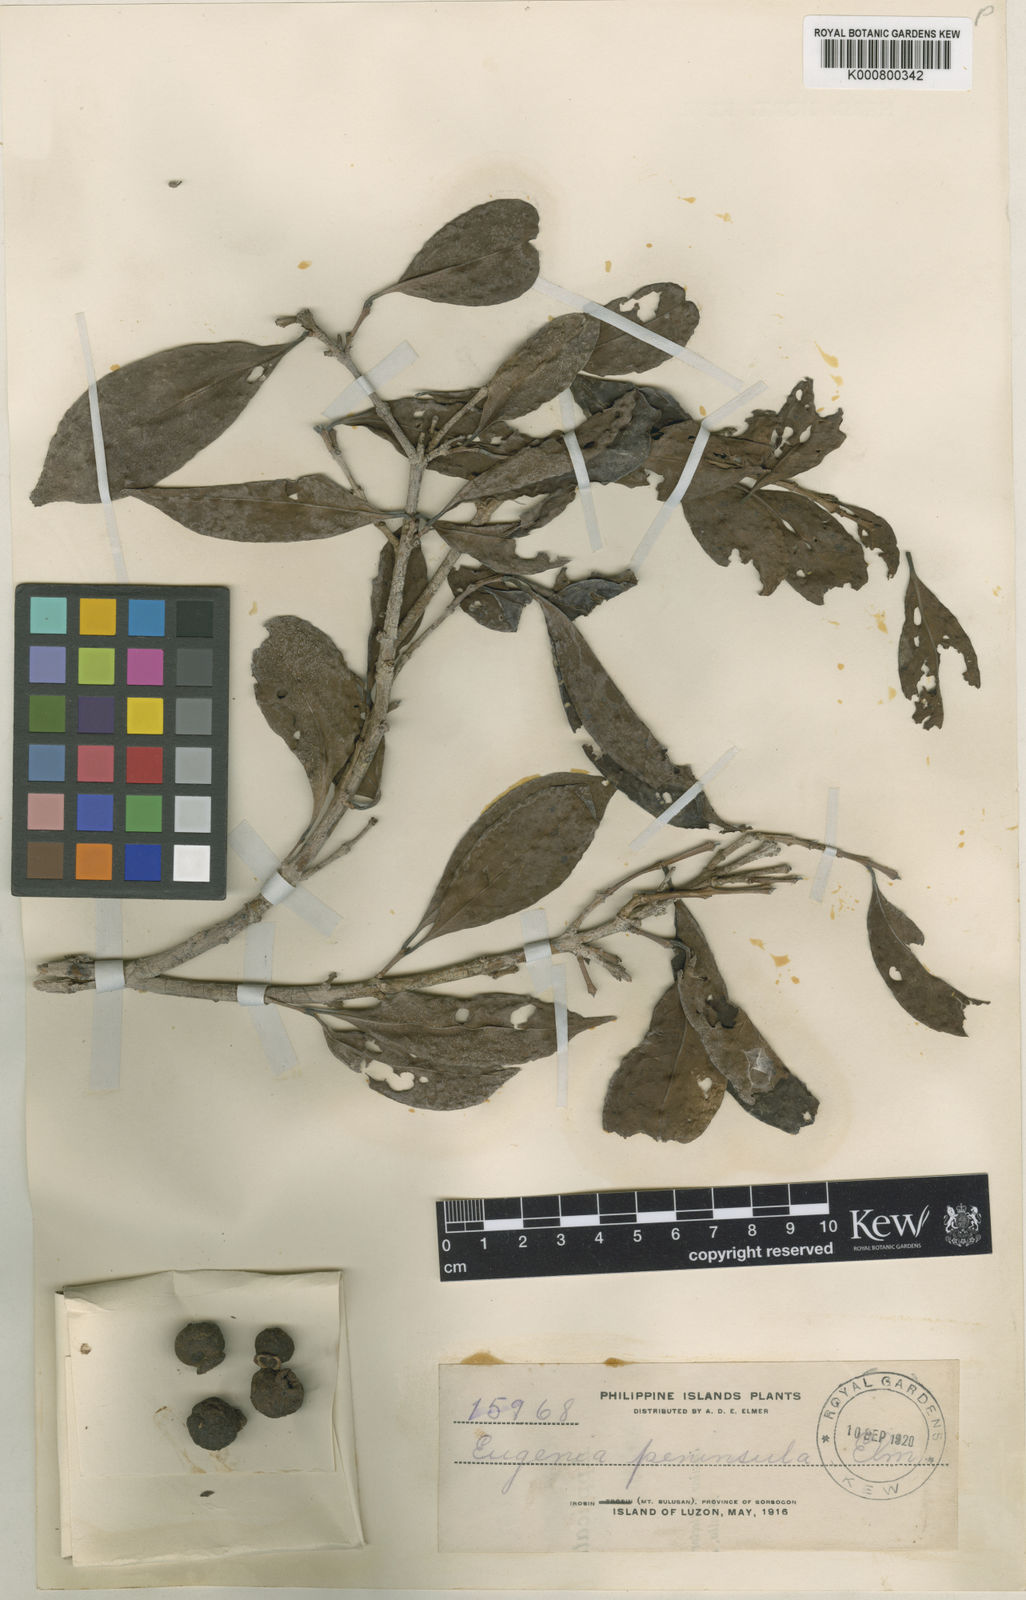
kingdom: Plantae
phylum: Tracheophyta
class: Magnoliopsida
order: Myrtales
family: Myrtaceae
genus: Syzygium
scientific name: Syzygium tripinnatum
